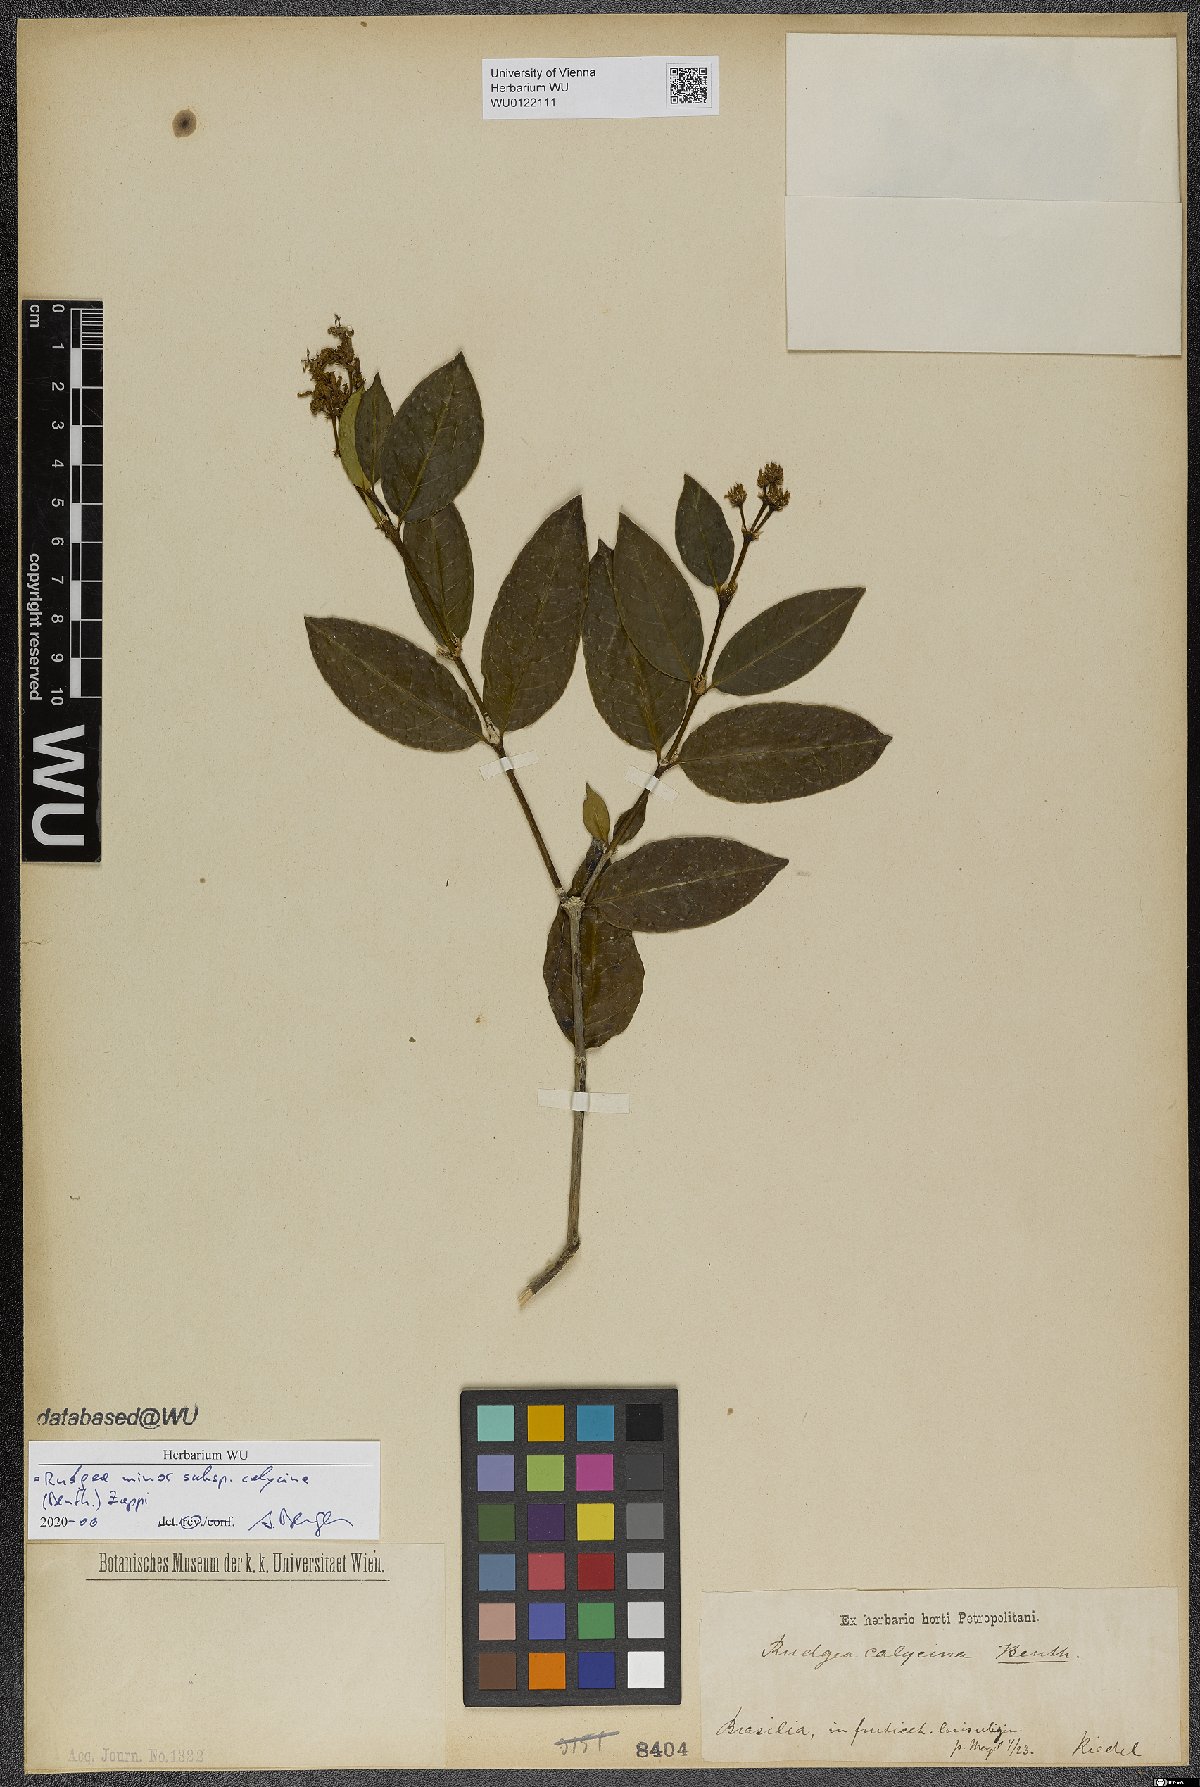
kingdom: Plantae
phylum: Tracheophyta
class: Magnoliopsida
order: Gentianales
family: Rubiaceae
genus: Rudgea
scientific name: Rudgea minor
